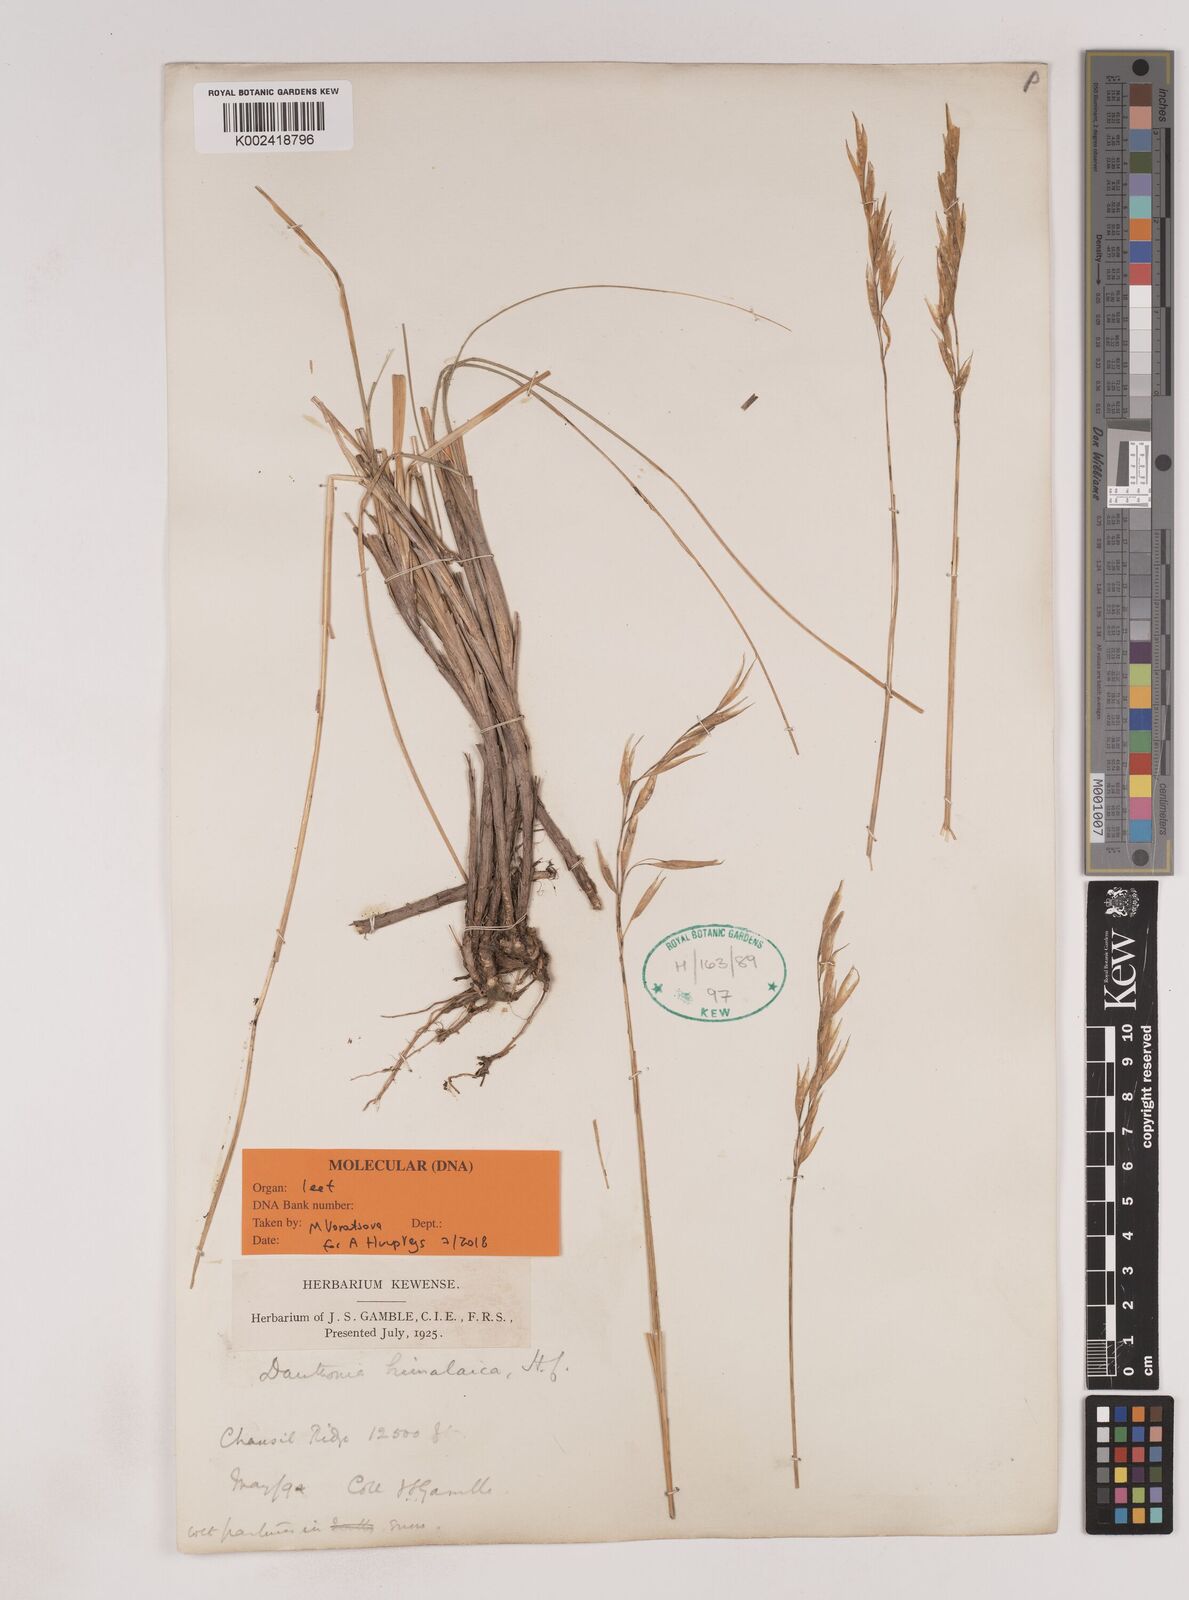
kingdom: Plantae
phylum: Tracheophyta
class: Liliopsida
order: Poales
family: Poaceae
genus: Pseudodanthonia
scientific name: Pseudodanthonia himalaica
